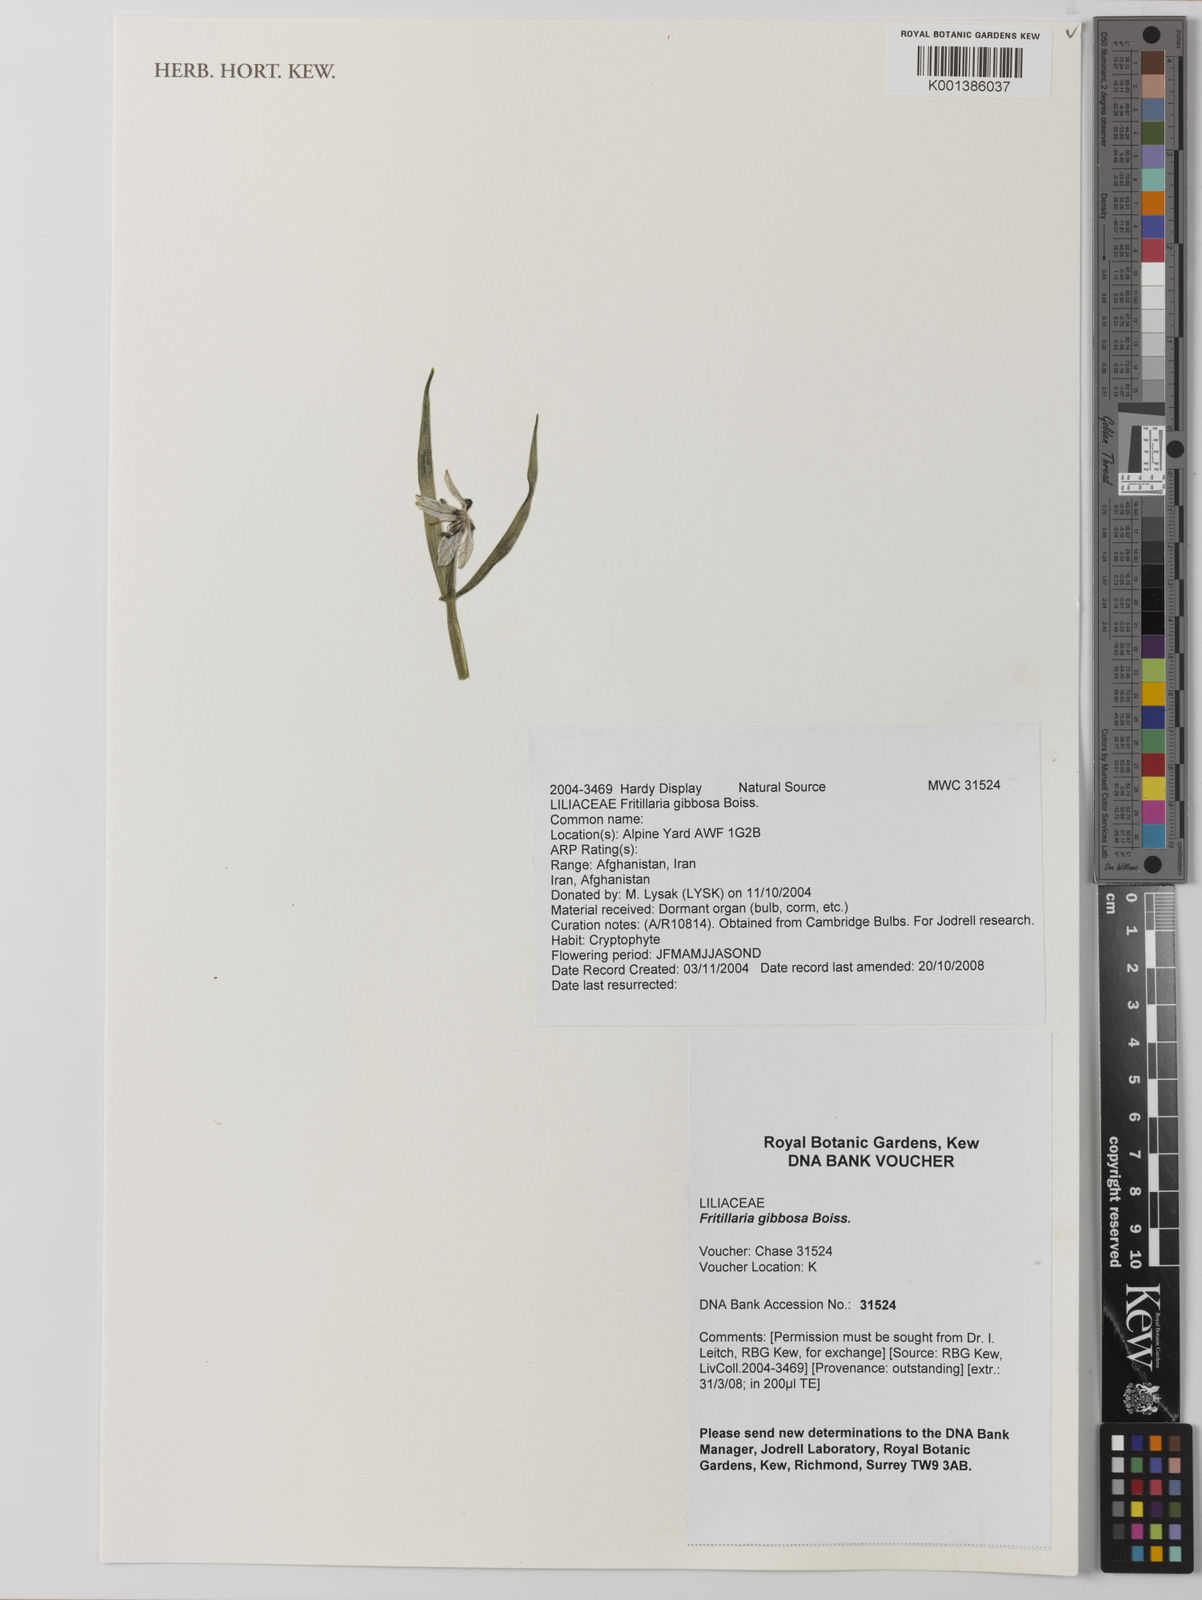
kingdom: Plantae
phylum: Tracheophyta
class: Liliopsida
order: Liliales
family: Liliaceae
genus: Fritillaria
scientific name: Fritillaria gibbosa
